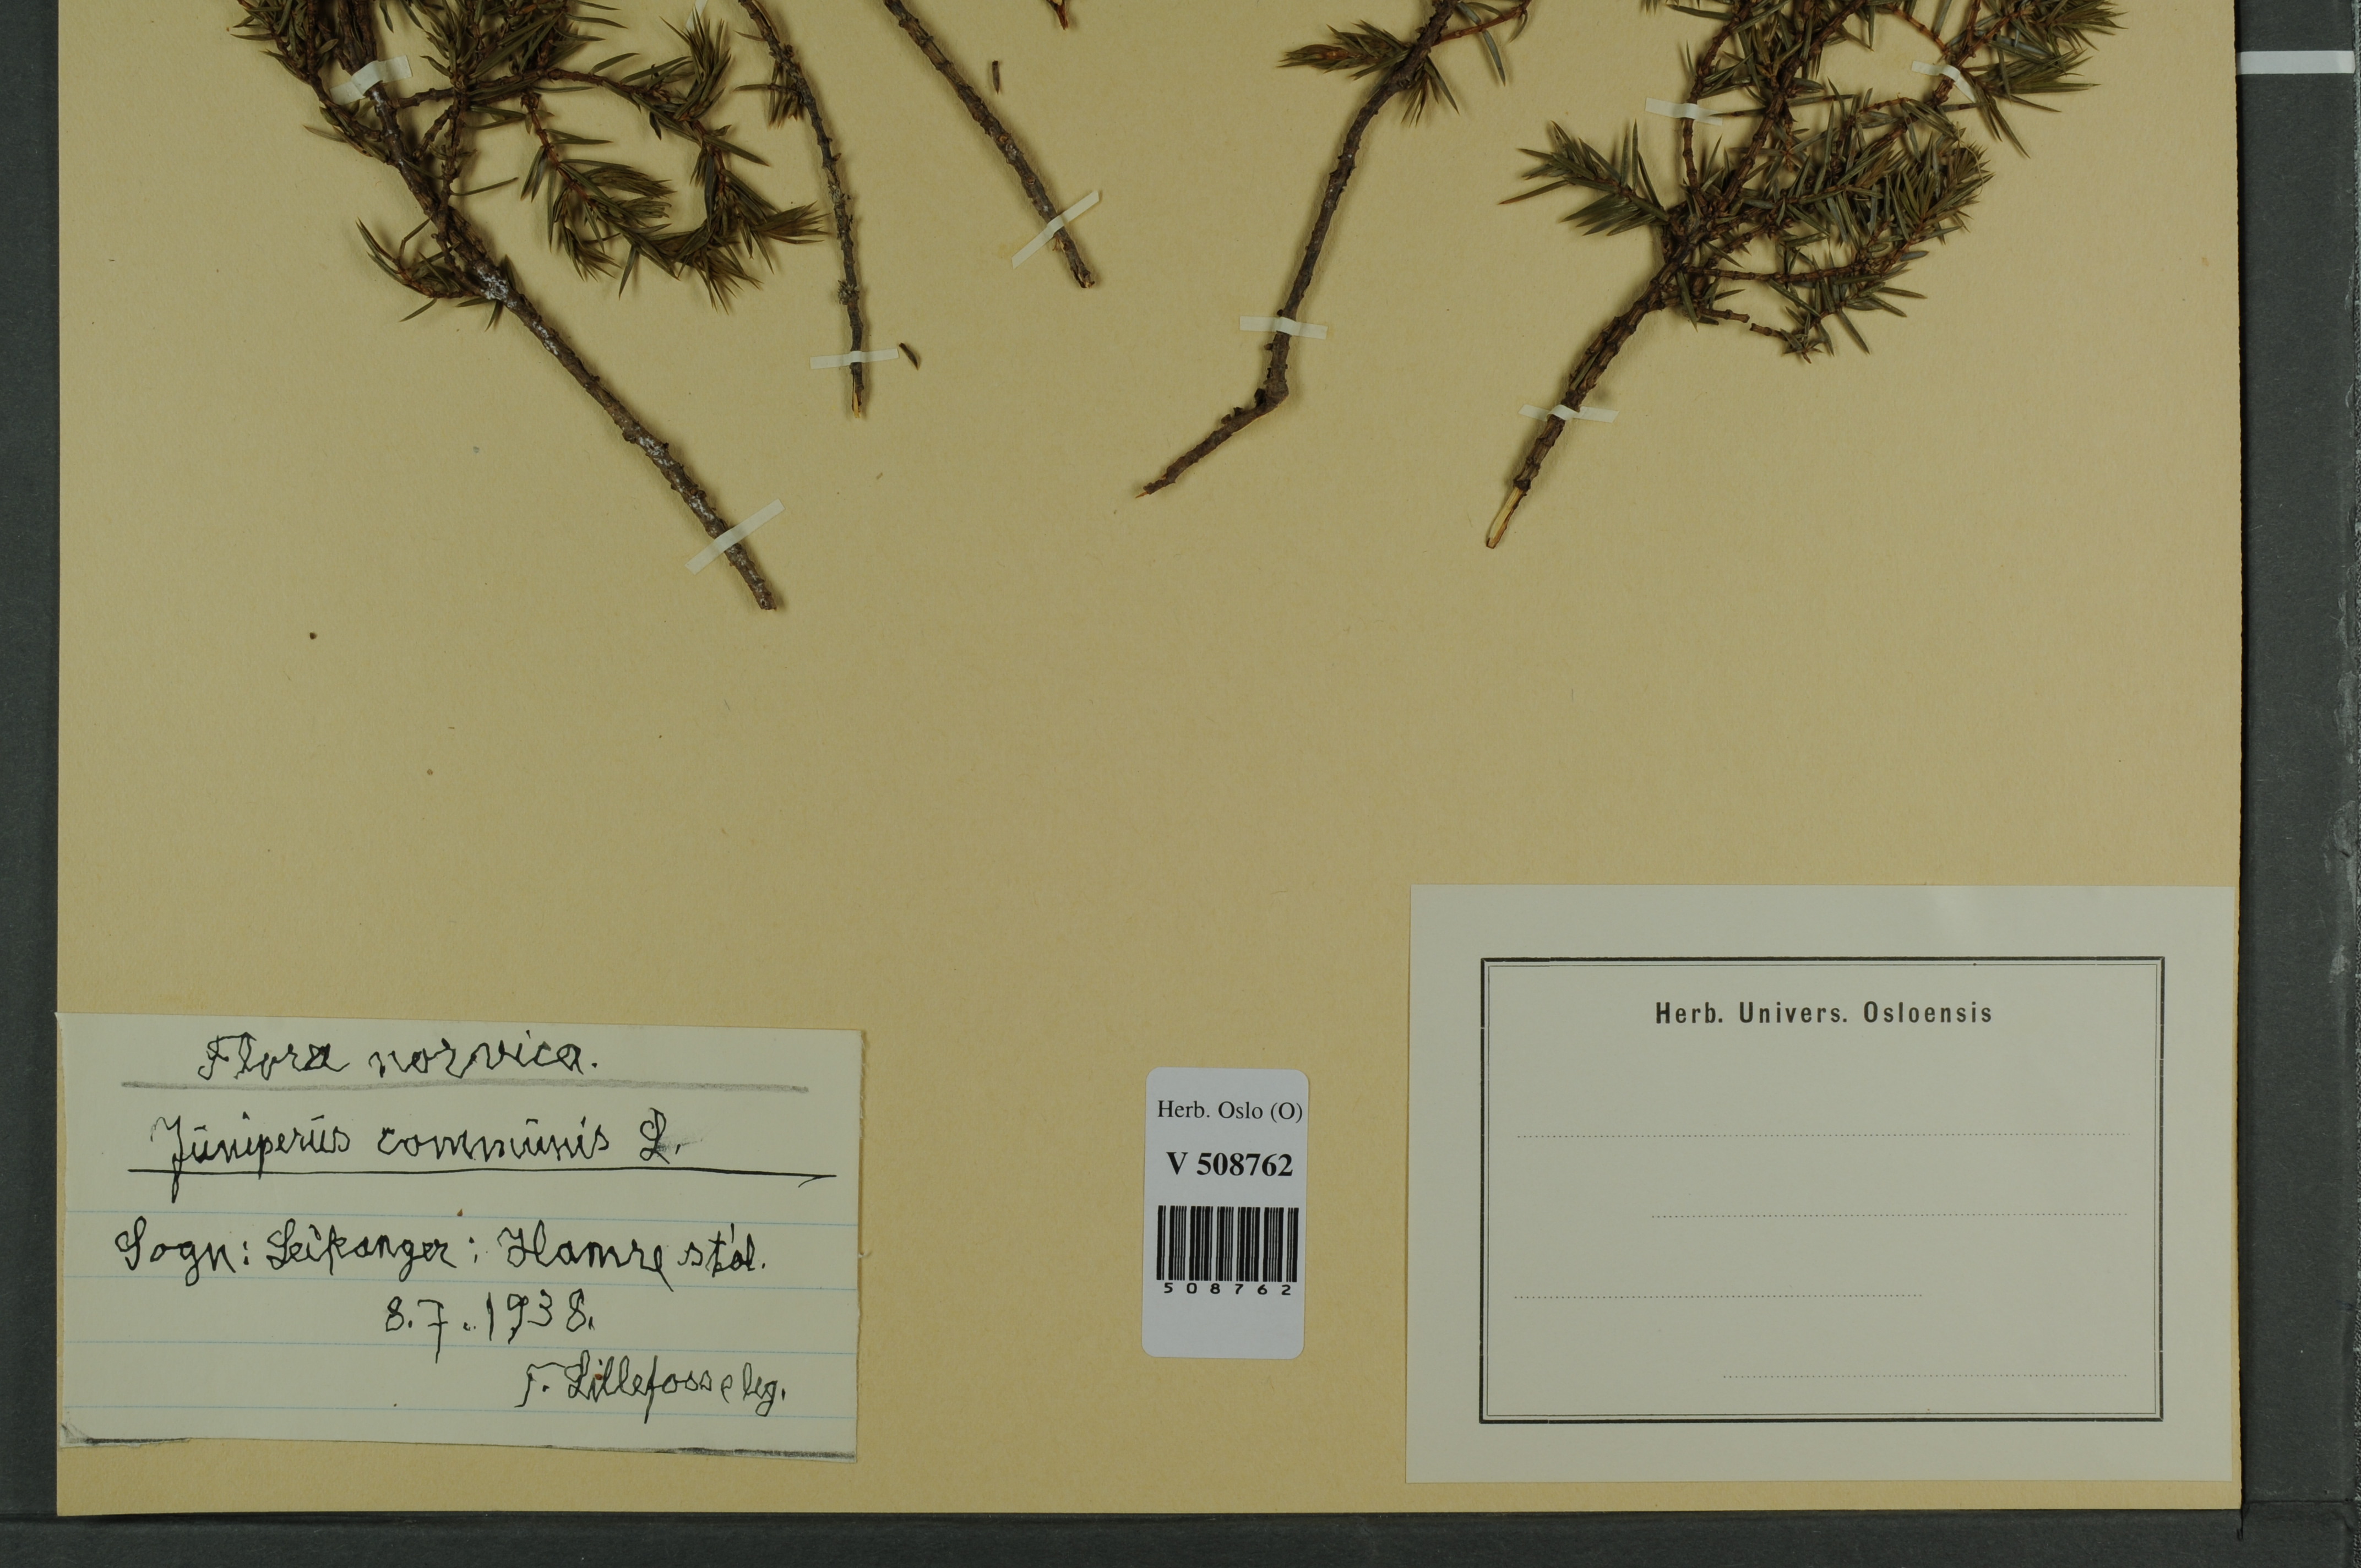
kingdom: Plantae
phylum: Tracheophyta
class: Pinopsida
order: Pinales
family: Cupressaceae
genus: Juniperus
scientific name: Juniperus communis
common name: Common juniper
